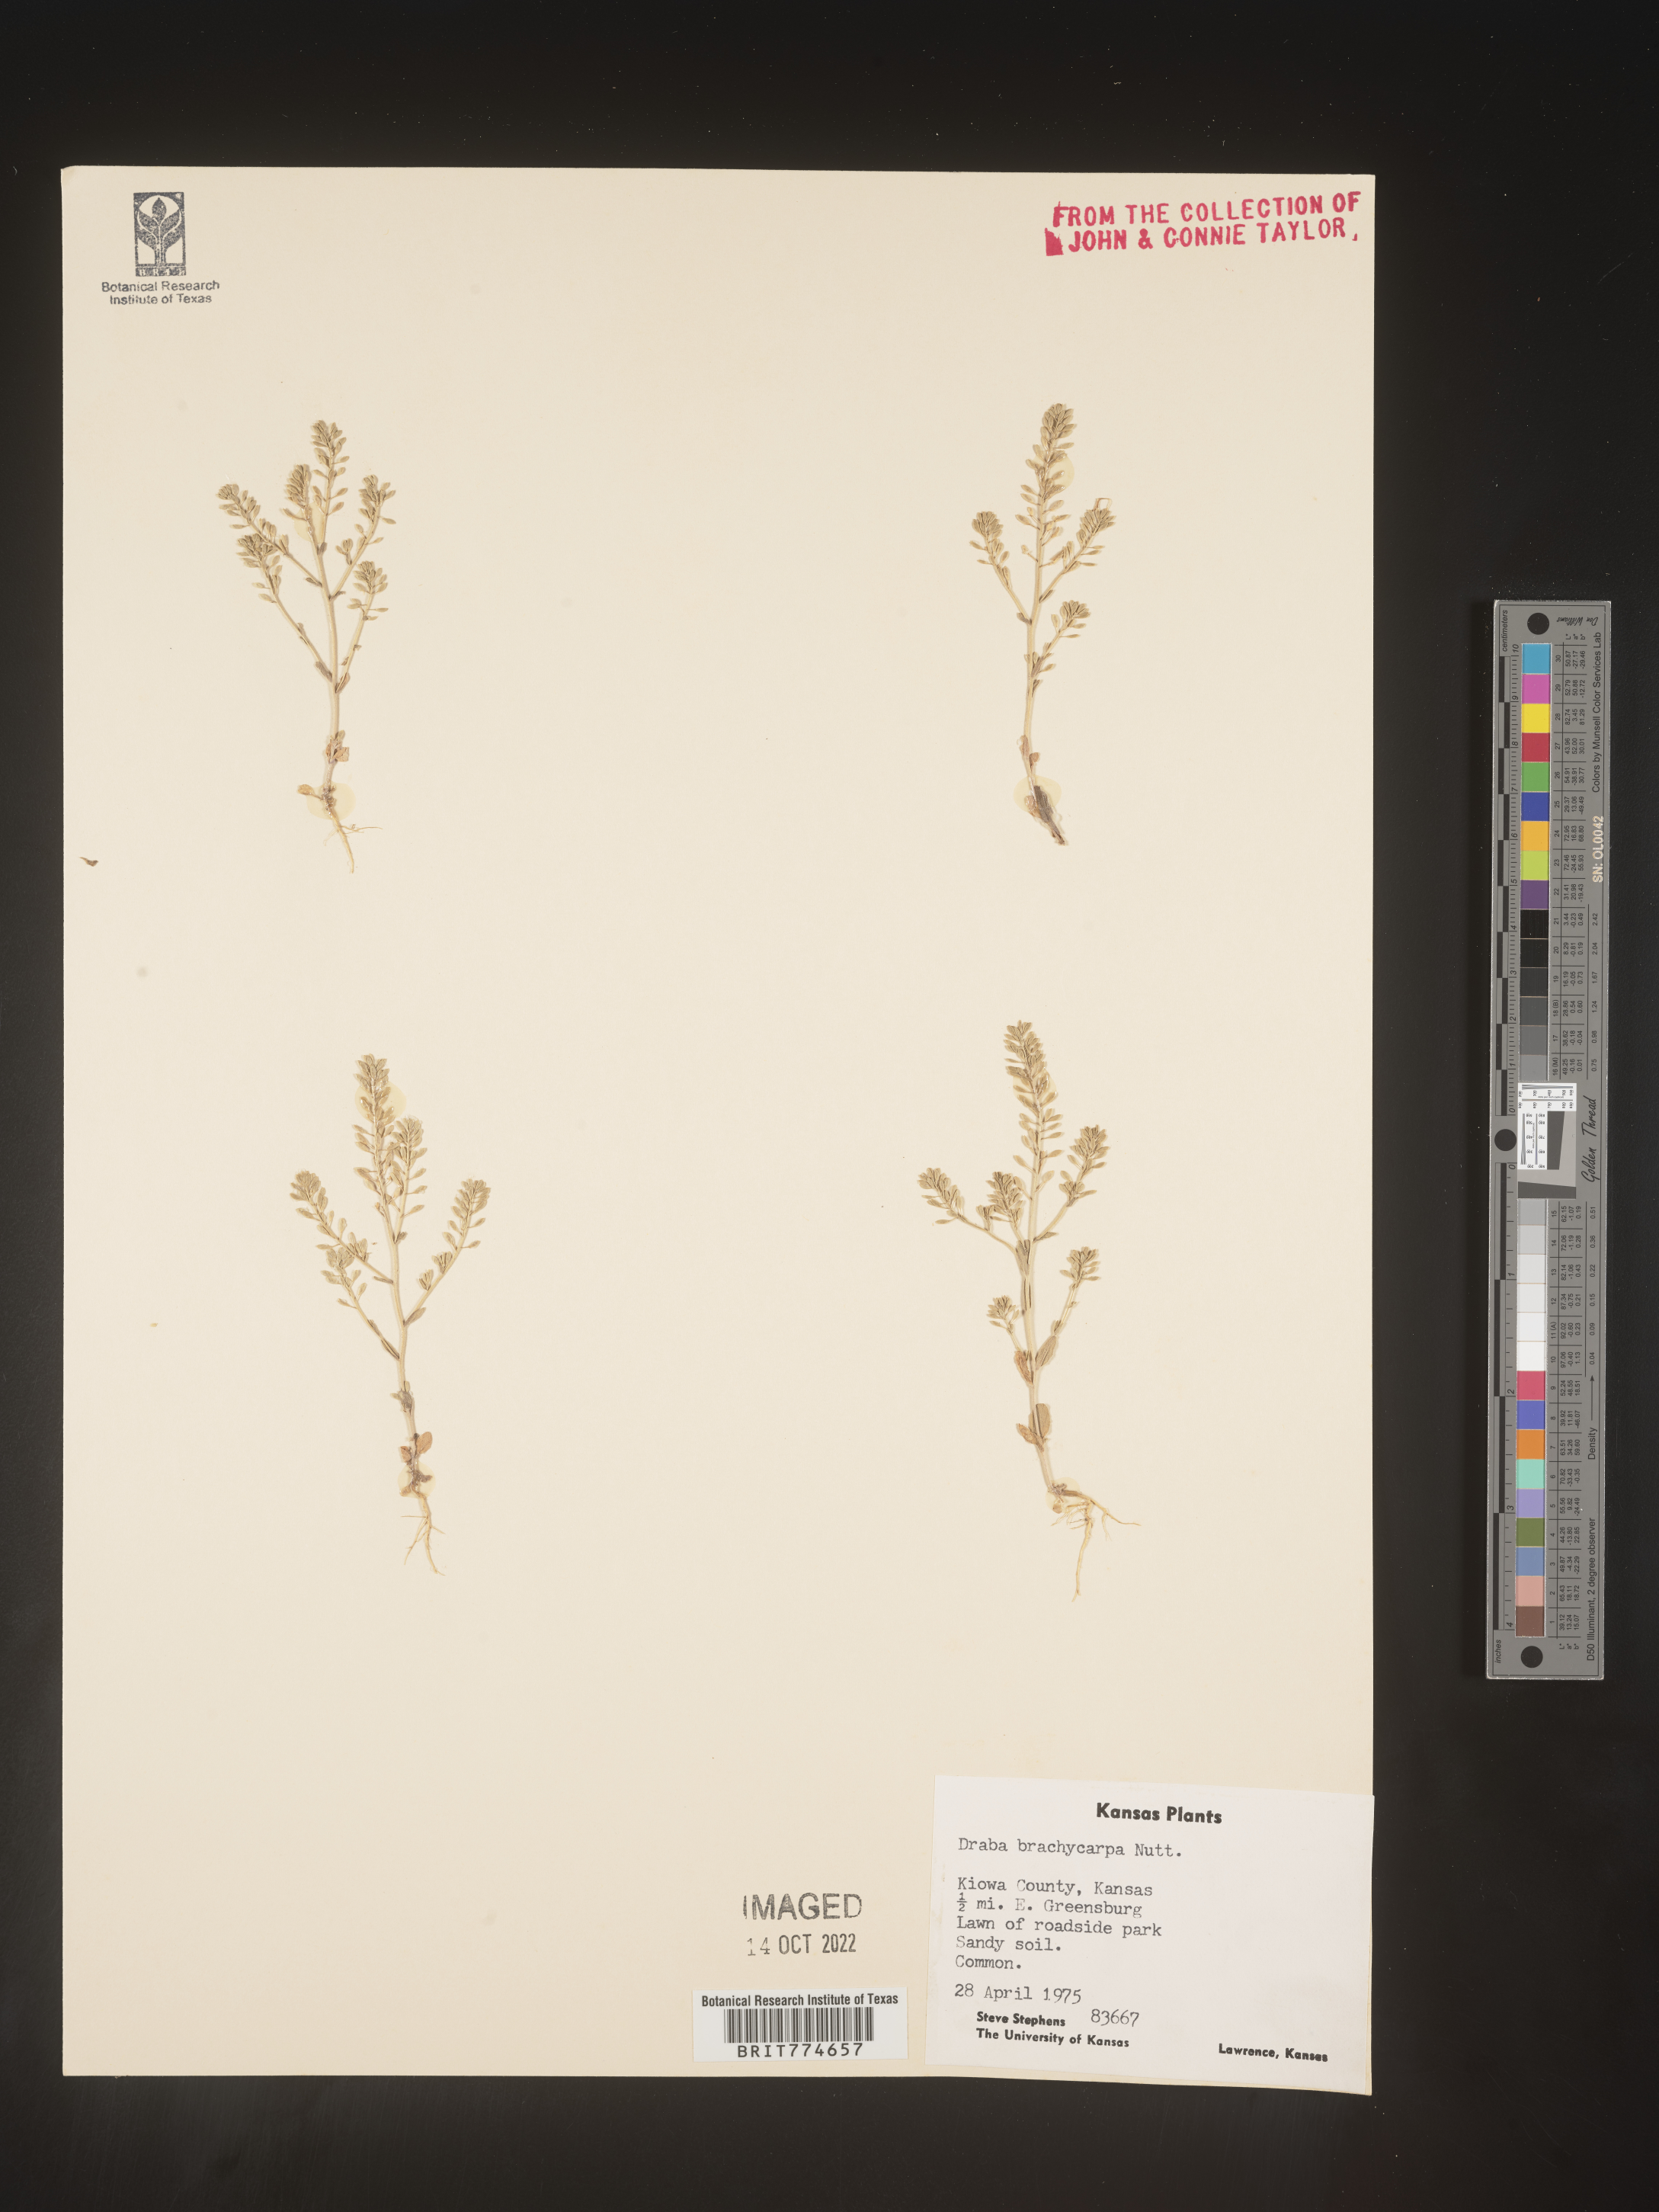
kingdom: Plantae
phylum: Tracheophyta
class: Magnoliopsida
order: Brassicales
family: Brassicaceae
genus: Abdra
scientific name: Abdra brachycarpa
